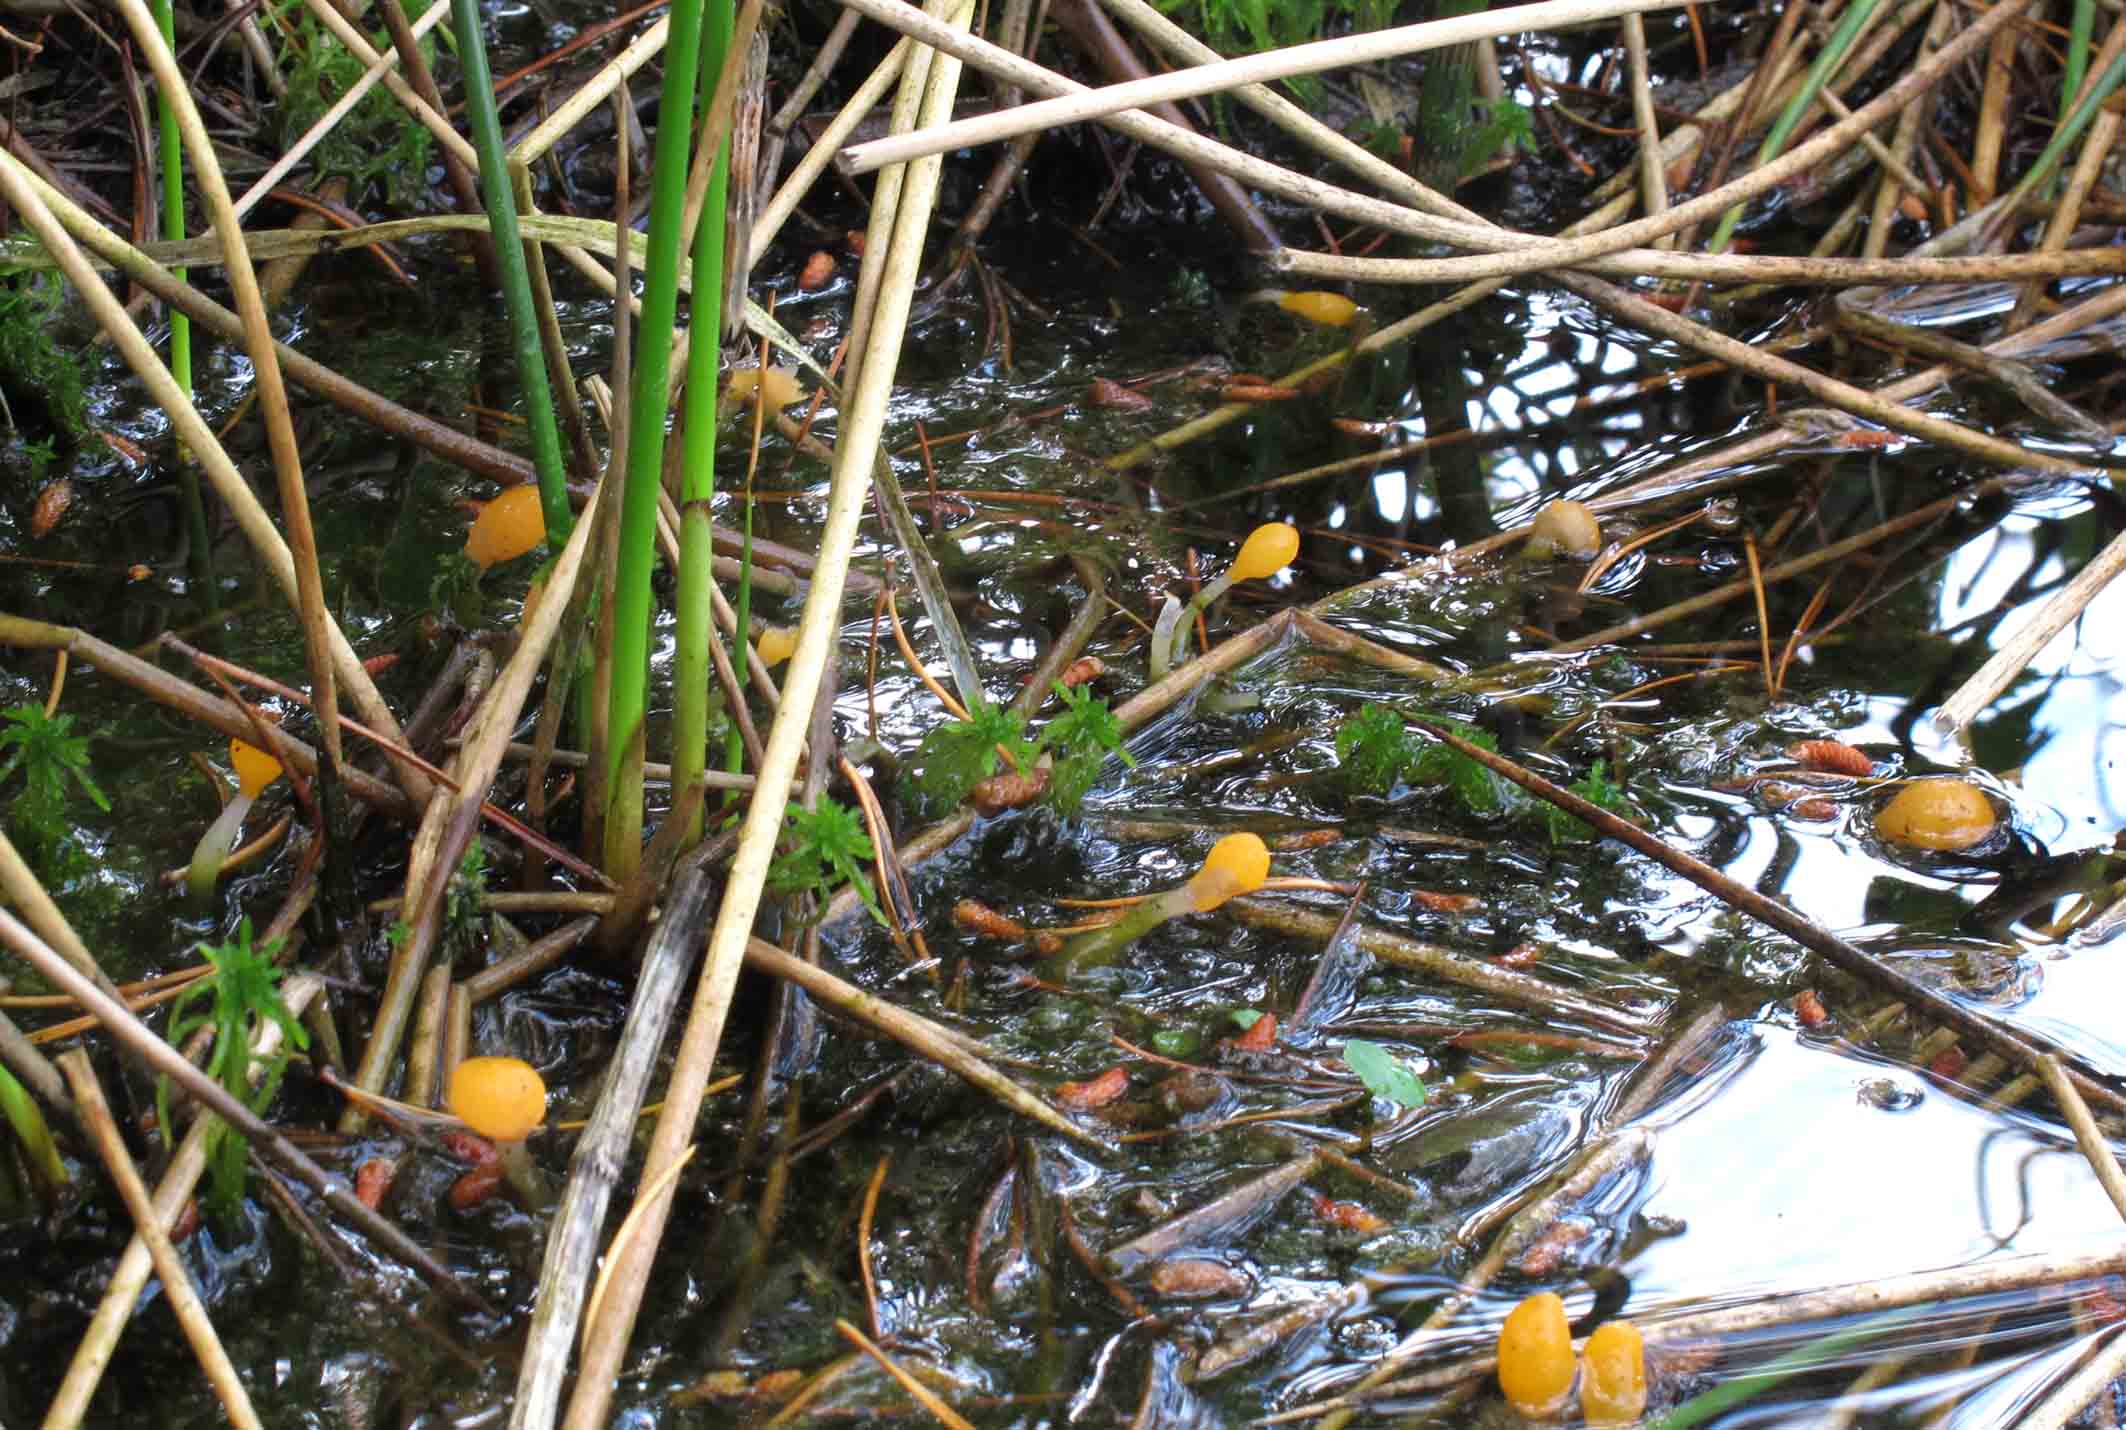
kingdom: Fungi
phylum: Ascomycota
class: Leotiomycetes
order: Helotiales
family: Cenangiaceae
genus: Mitrula
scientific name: Mitrula paludosa
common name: gul nøkketunge
